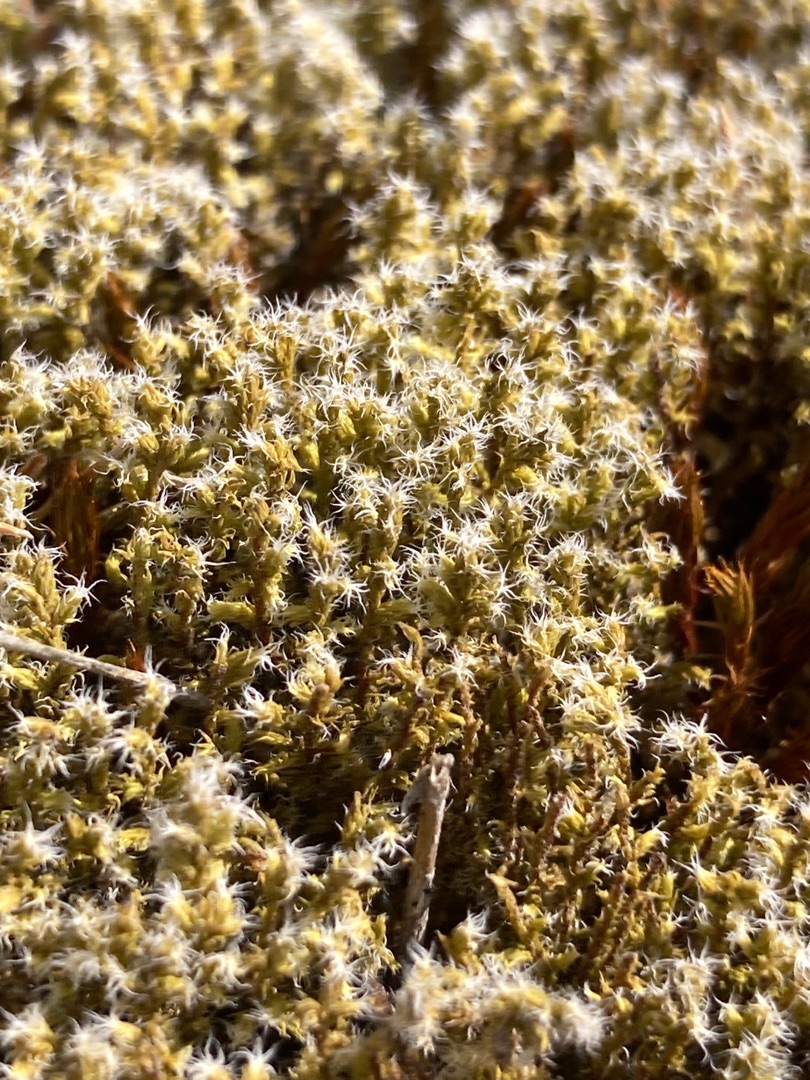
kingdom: Plantae
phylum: Bryophyta
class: Bryopsida
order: Grimmiales
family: Grimmiaceae
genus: Niphotrichum
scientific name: Niphotrichum elongatum
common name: Lang børstemos
